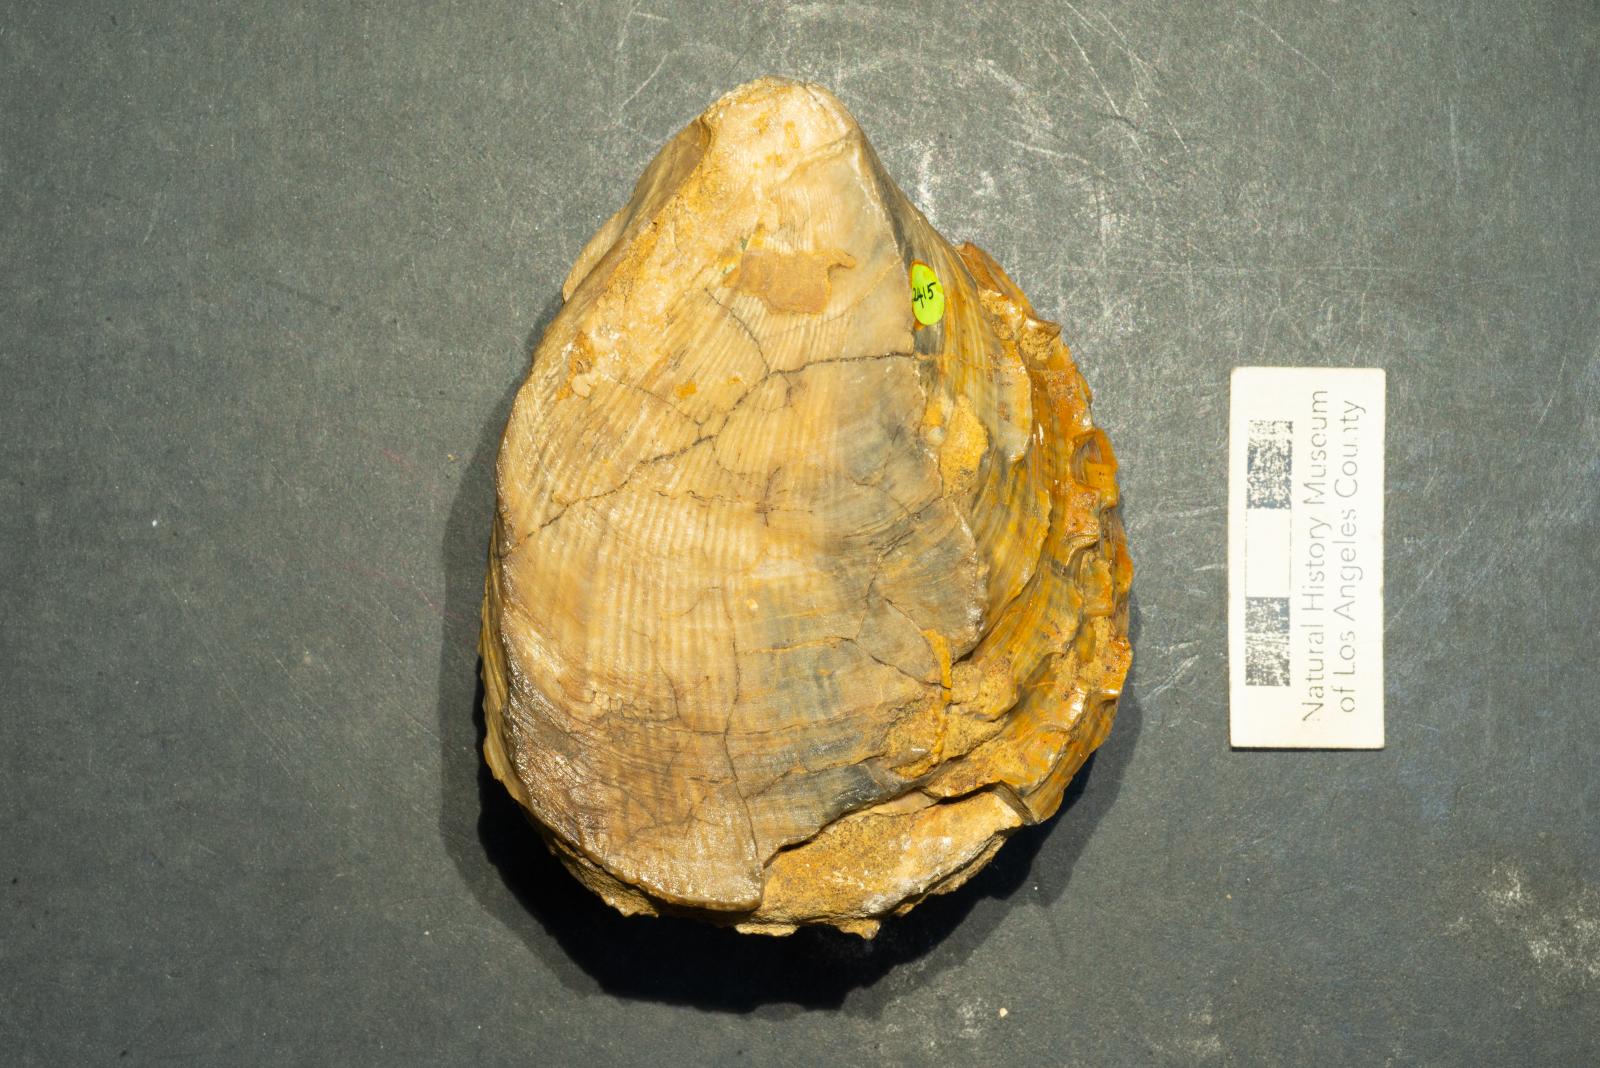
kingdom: Animalia
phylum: Mollusca
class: Bivalvia
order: Pectinida
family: Spondylidae
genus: Spondylus
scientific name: Spondylus subnodosus
